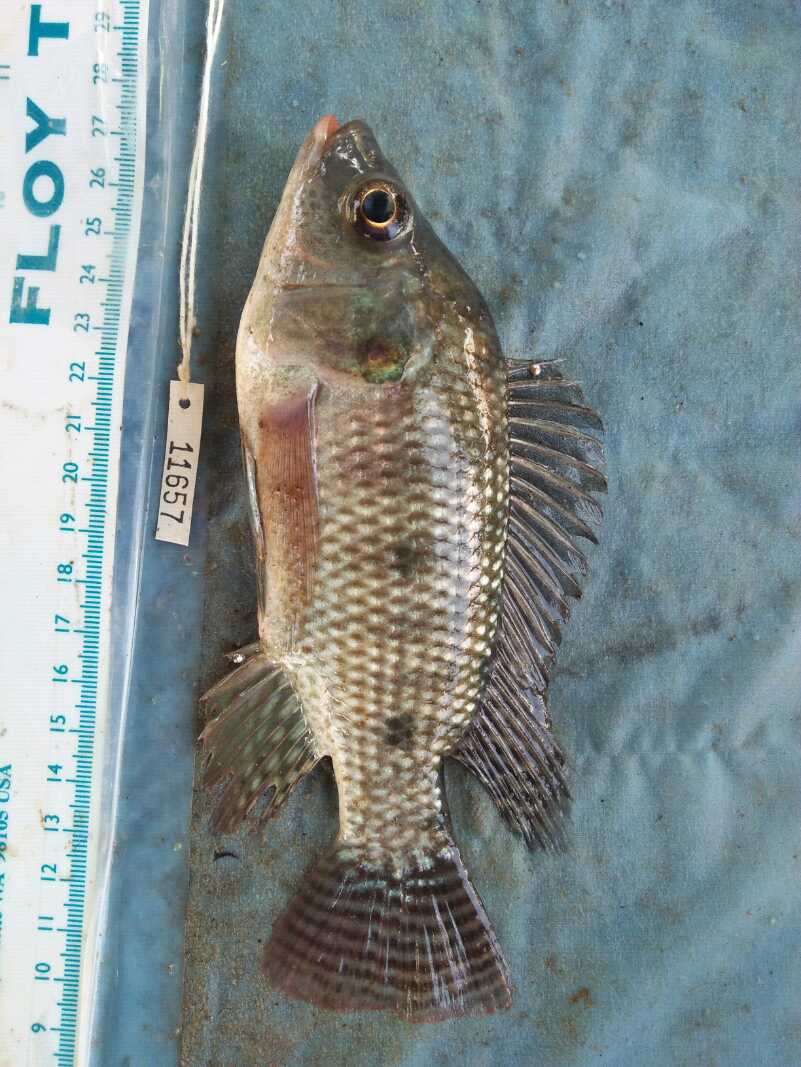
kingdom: Animalia
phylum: Chordata
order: Perciformes
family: Cichlidae
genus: Oreochromis
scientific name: Oreochromis niloticus
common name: Nile tilapia
